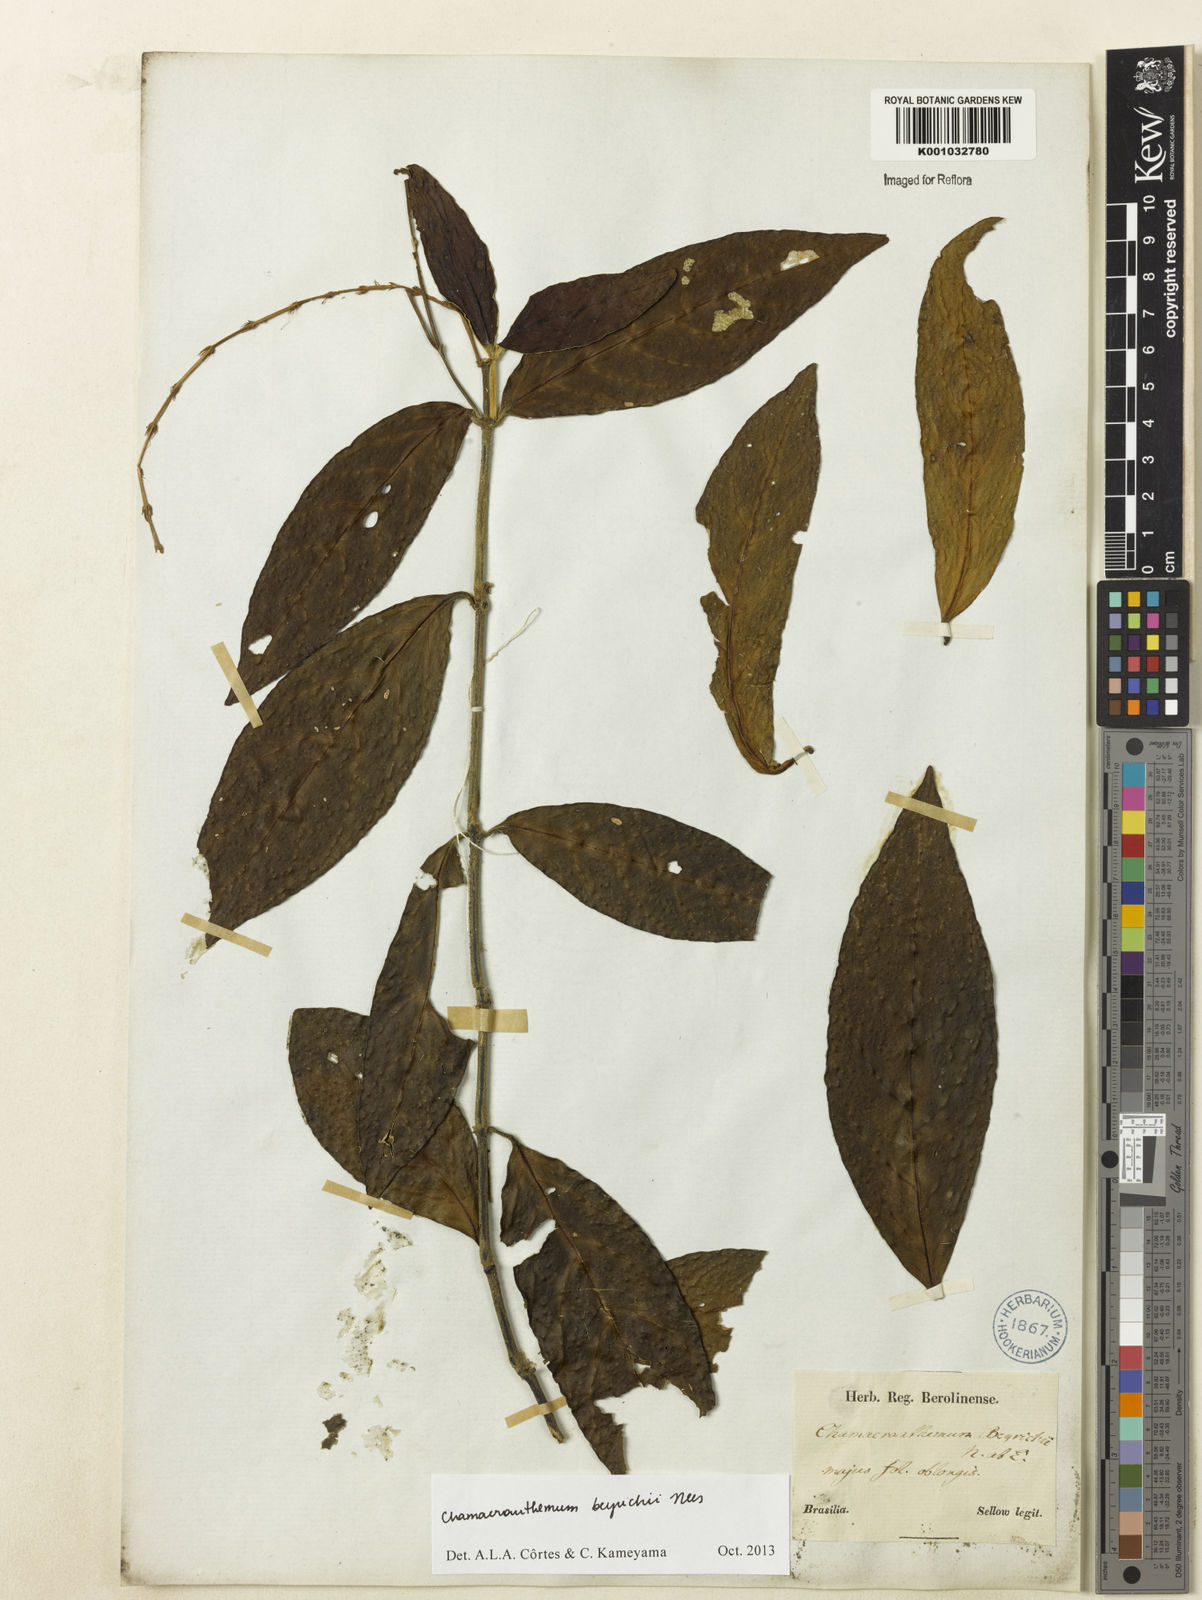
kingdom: Plantae
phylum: Tracheophyta
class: Magnoliopsida
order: Lamiales
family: Acanthaceae
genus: Chamaeranthemum
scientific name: Chamaeranthemum beyrichii
